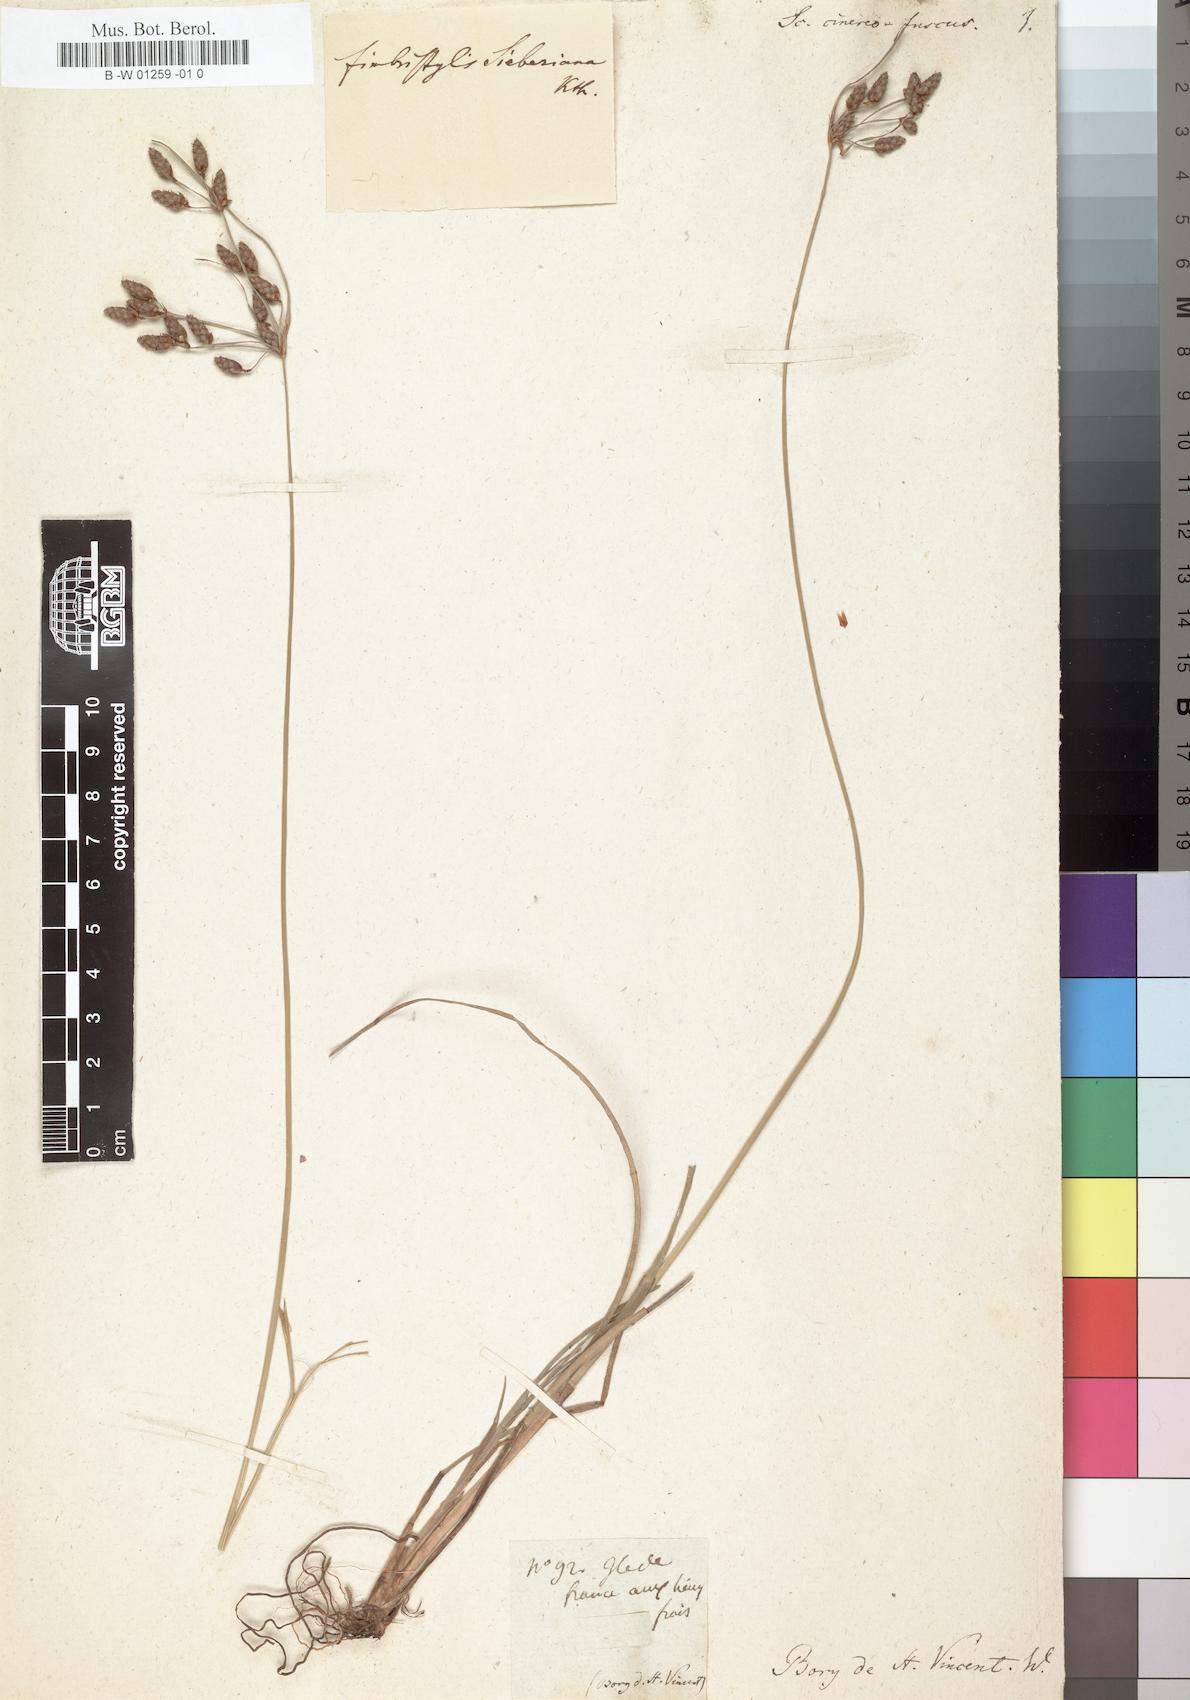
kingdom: Plantae
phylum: Tracheophyta
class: Liliopsida
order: Poales
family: Cyperaceae
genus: Fimbristylis
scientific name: Fimbristylis ferruginea
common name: West indian fimbry
